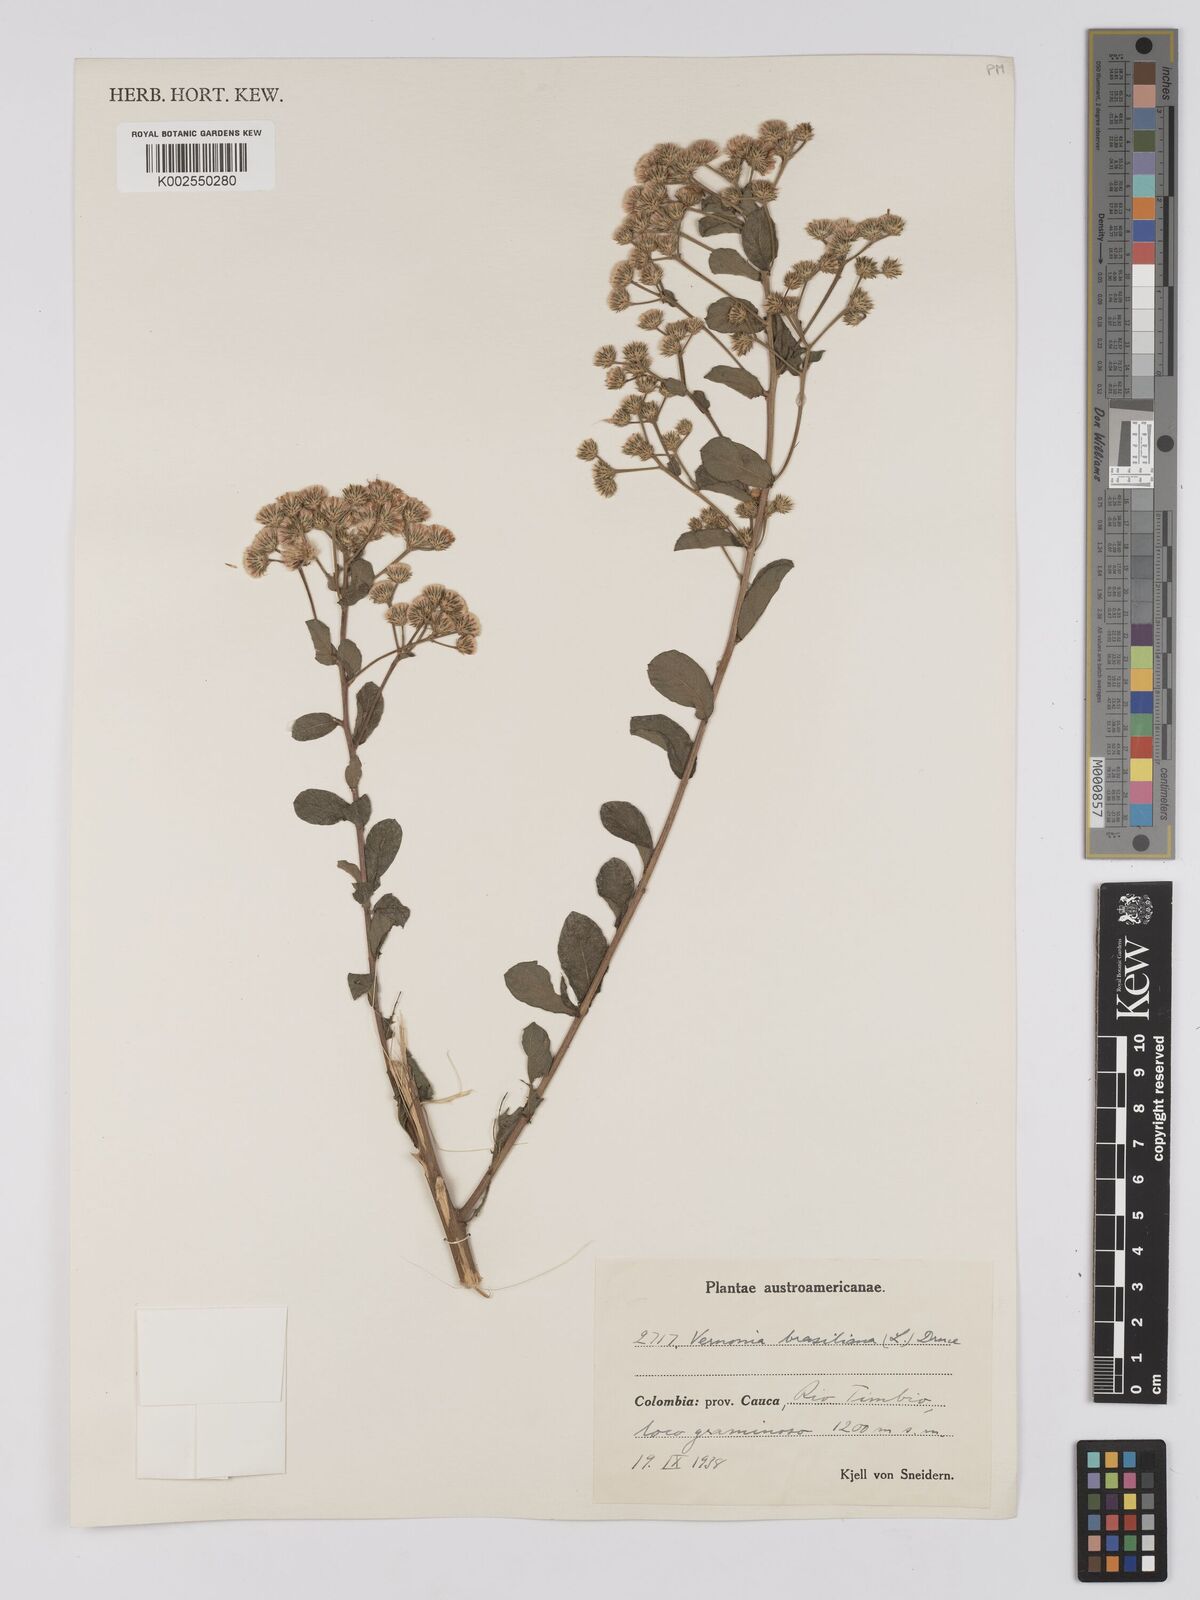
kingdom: Plantae
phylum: Tracheophyta
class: Magnoliopsida
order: Asterales
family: Asteraceae
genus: Vernonanthura
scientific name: Vernonanthura brasiliana
